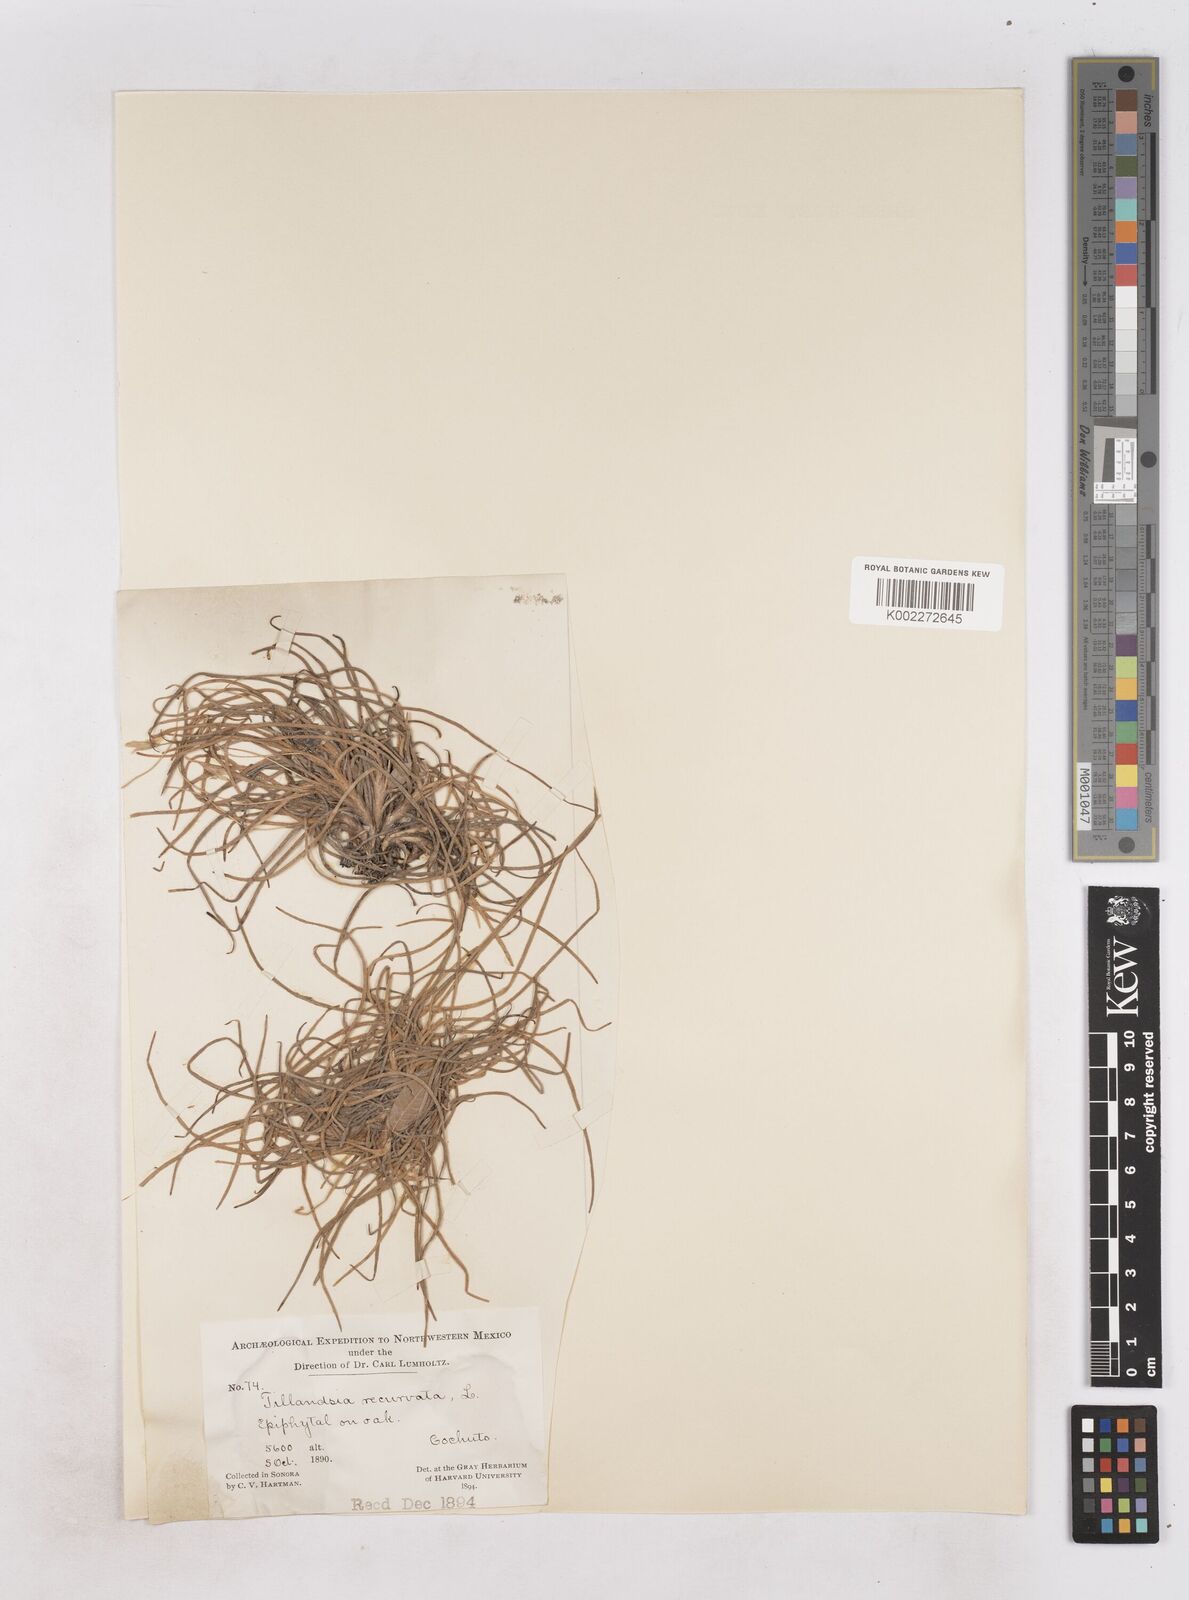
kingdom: Plantae
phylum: Tracheophyta
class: Liliopsida
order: Poales
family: Bromeliaceae
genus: Tillandsia
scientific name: Tillandsia recurvata
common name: Small ballmoss
